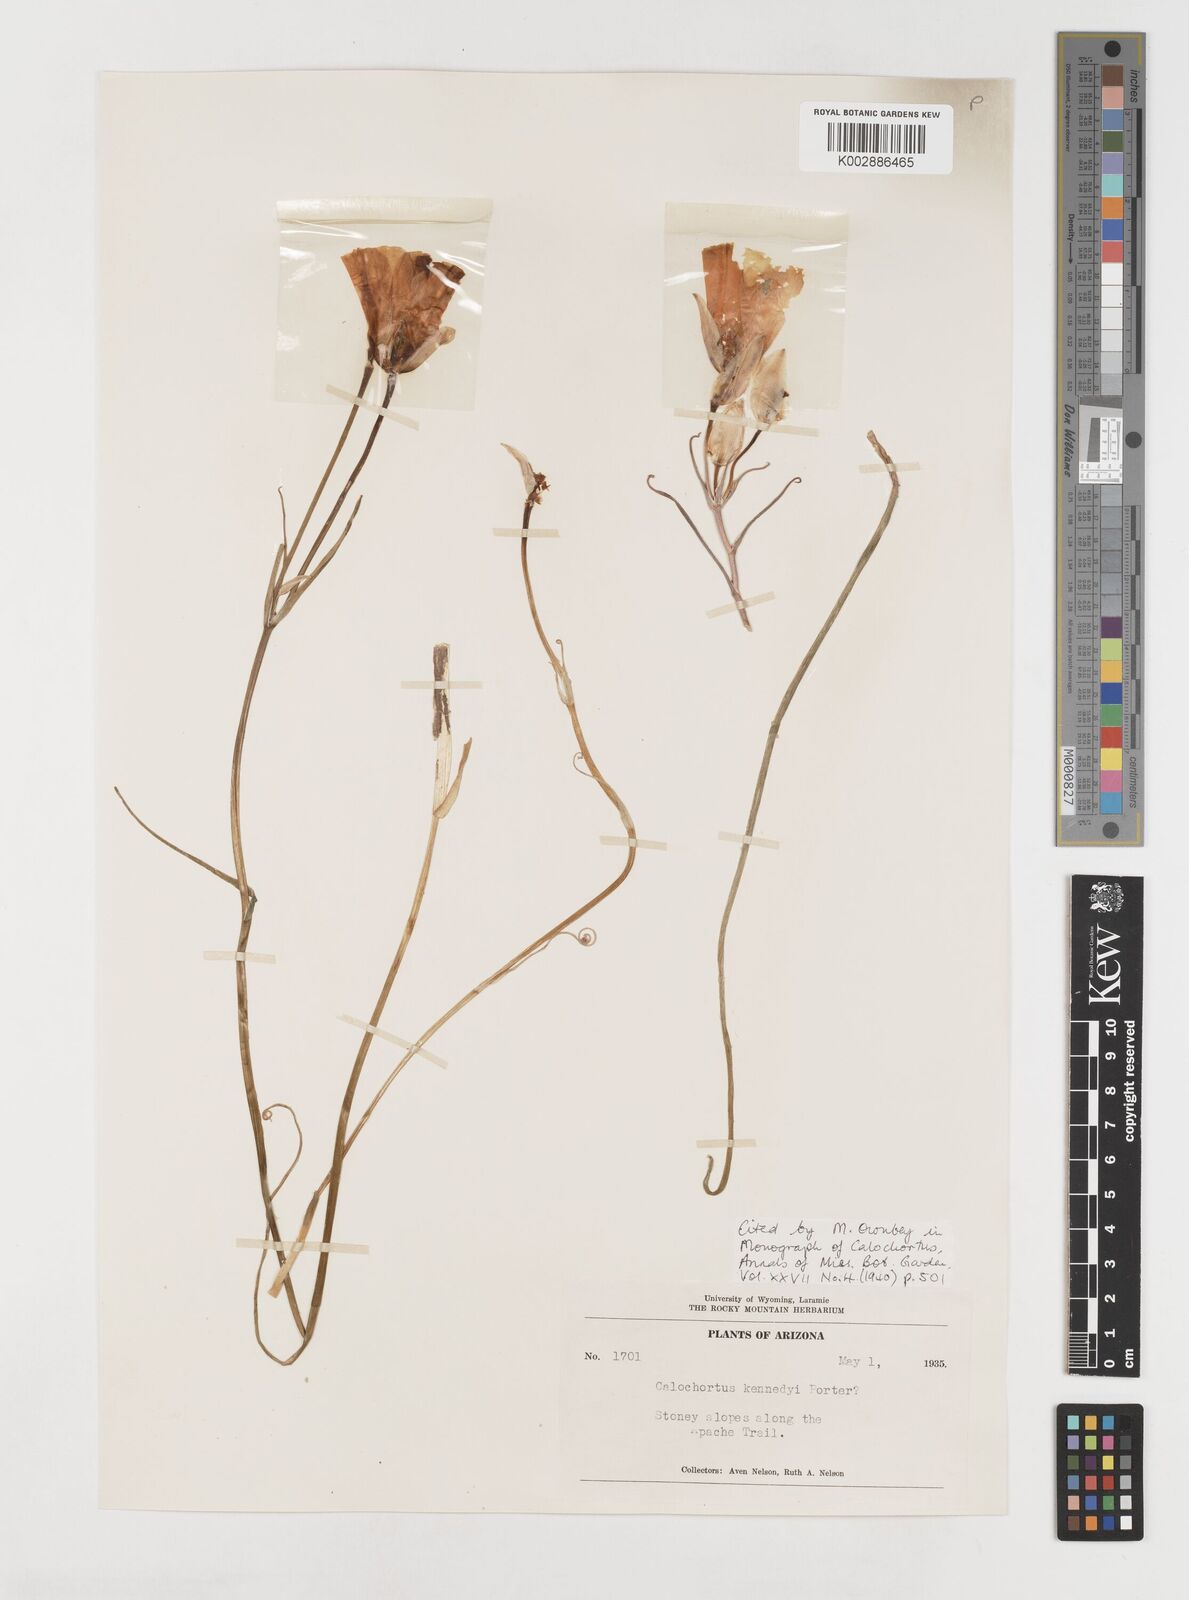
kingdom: Plantae
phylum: Tracheophyta
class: Liliopsida
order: Liliales
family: Liliaceae
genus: Calochortus
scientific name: Calochortus kennedyi
